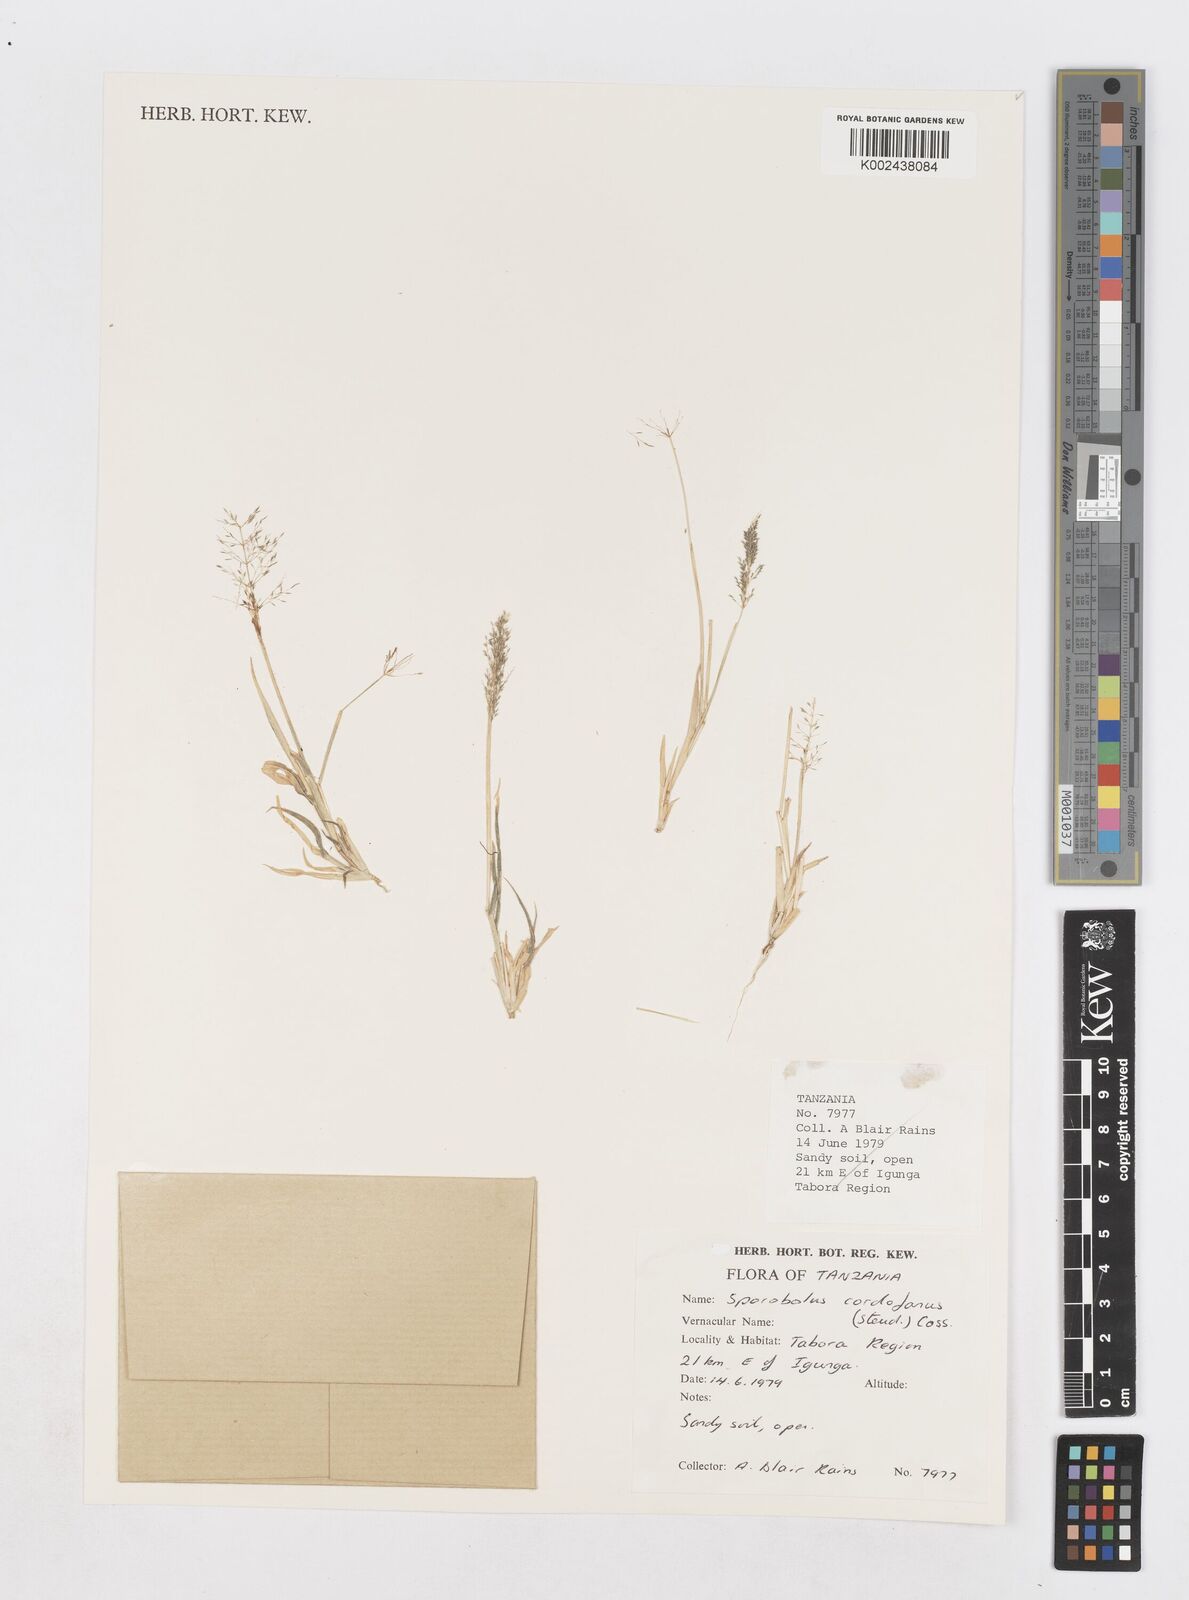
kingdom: Plantae
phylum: Tracheophyta
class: Liliopsida
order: Poales
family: Poaceae
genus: Sporobolus
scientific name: Sporobolus cordofanus
